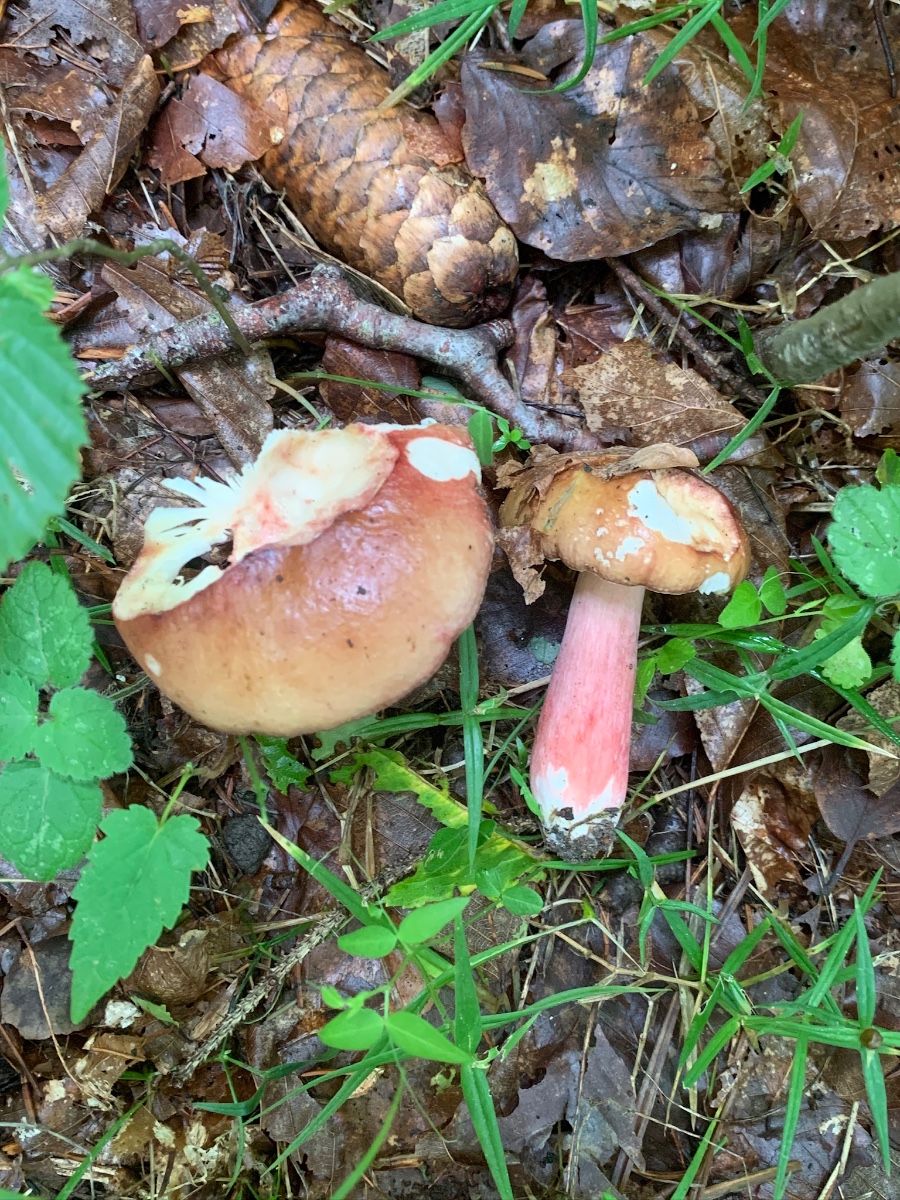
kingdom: Fungi
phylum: Basidiomycota
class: Agaricomycetes
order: Russulales
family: Russulaceae
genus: Russula
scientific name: Russula queletii
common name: Quélets skørhat
